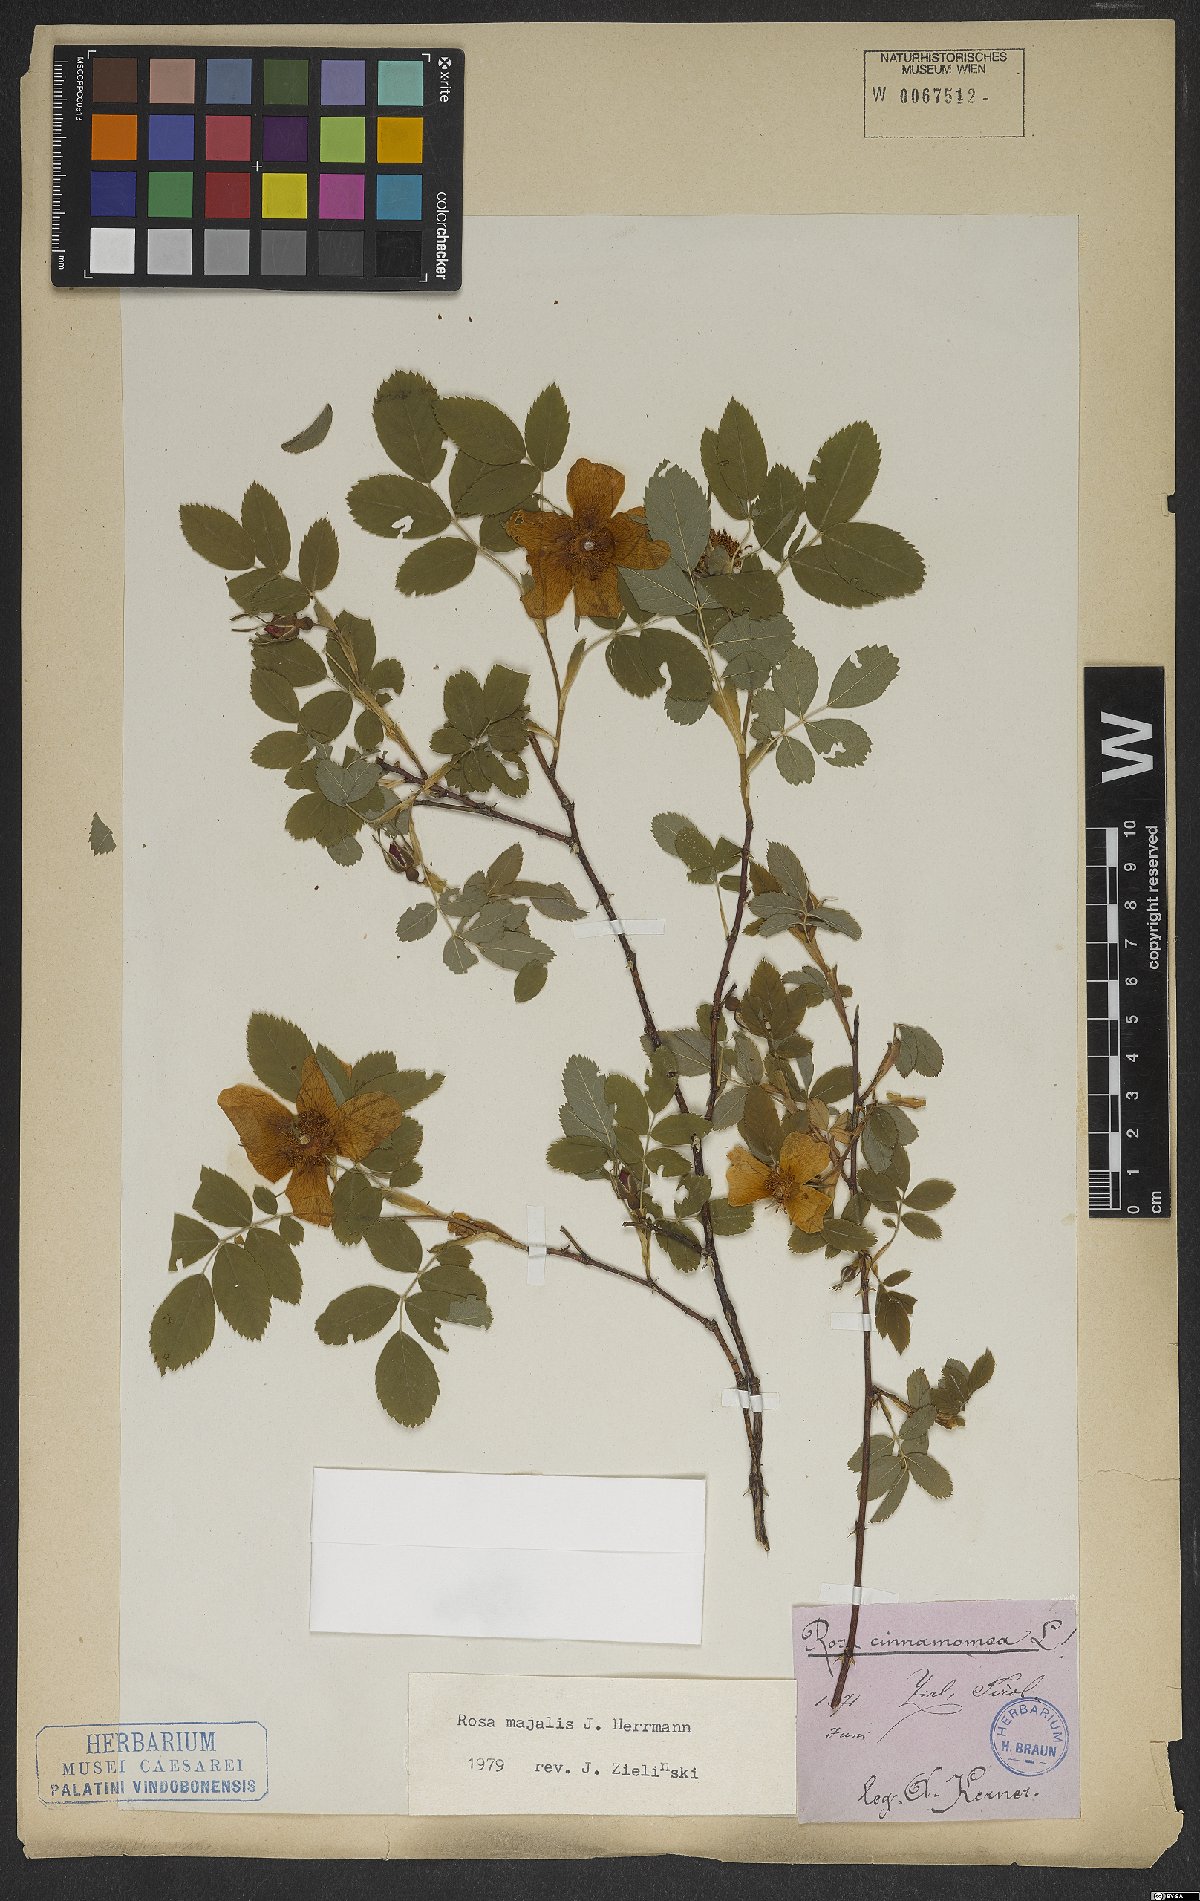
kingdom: Plantae
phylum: Tracheophyta
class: Magnoliopsida
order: Rosales
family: Rosaceae
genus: Rosa
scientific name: Rosa majalis
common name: Cinnamon rose
